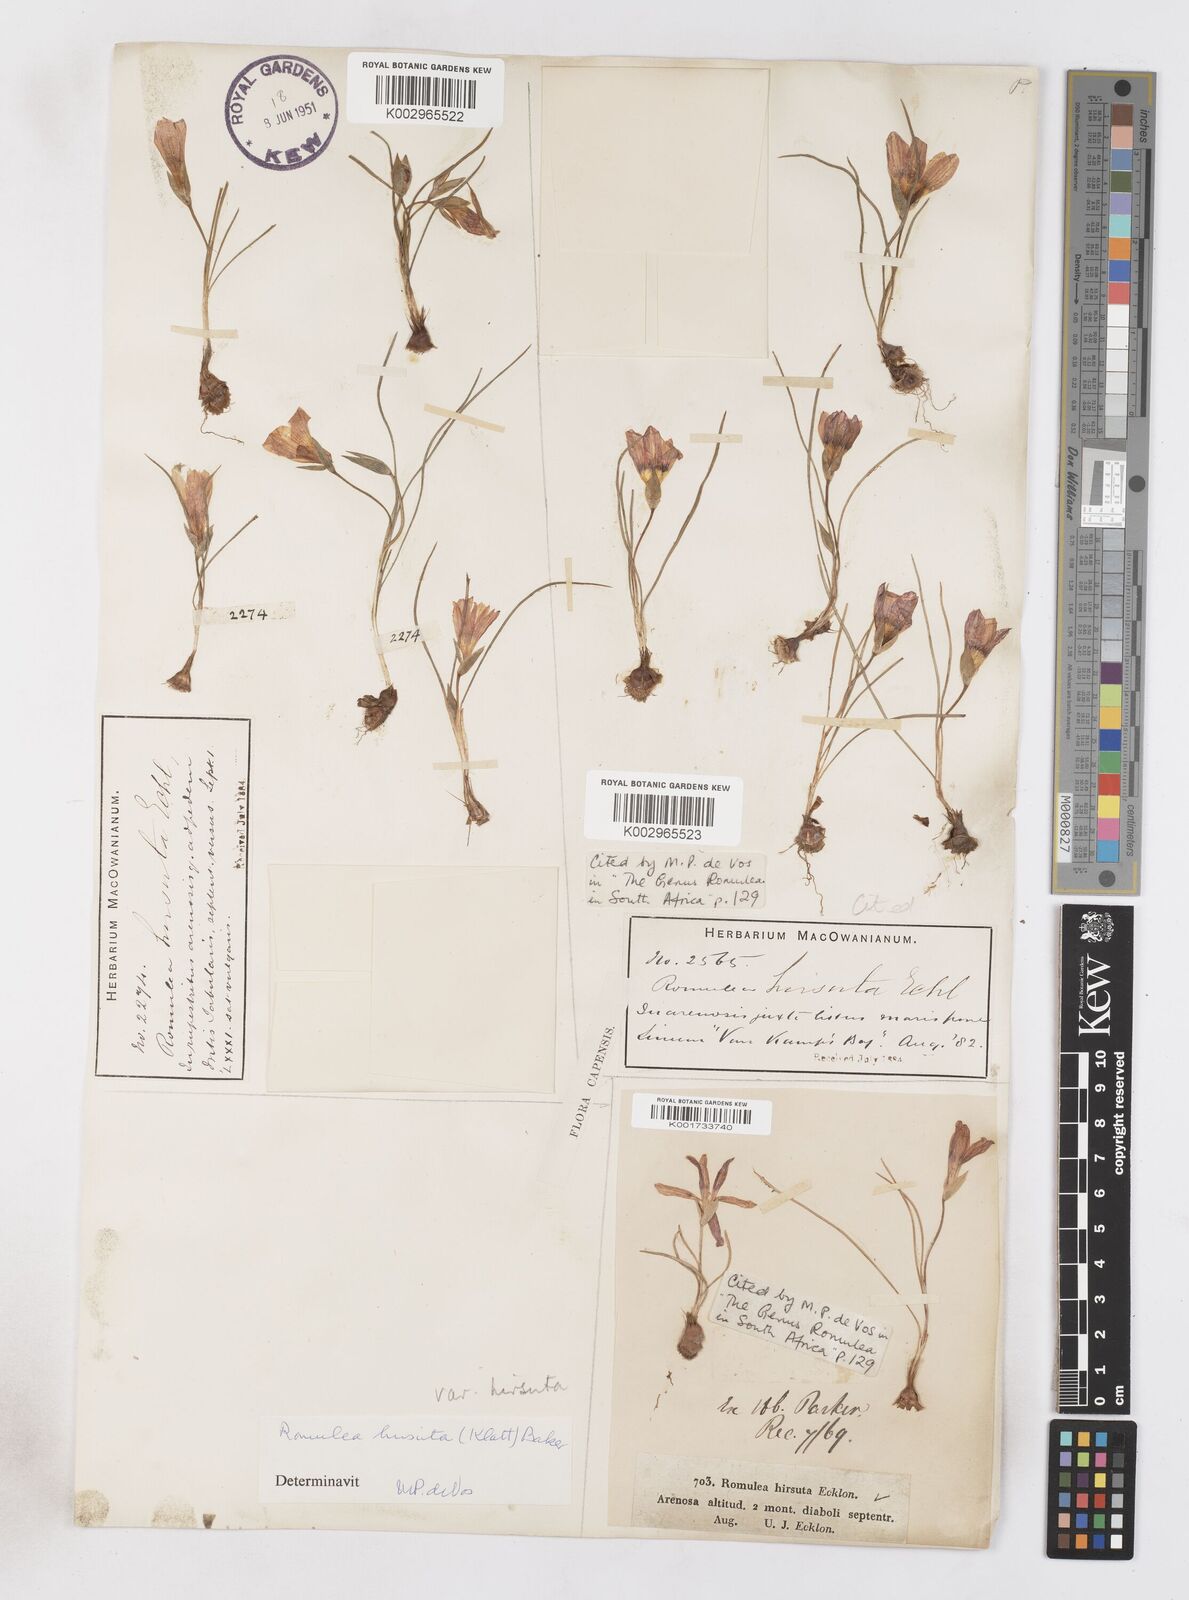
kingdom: Plantae
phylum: Tracheophyta
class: Liliopsida
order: Asparagales
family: Iridaceae
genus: Romulea
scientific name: Romulea hirsuta
